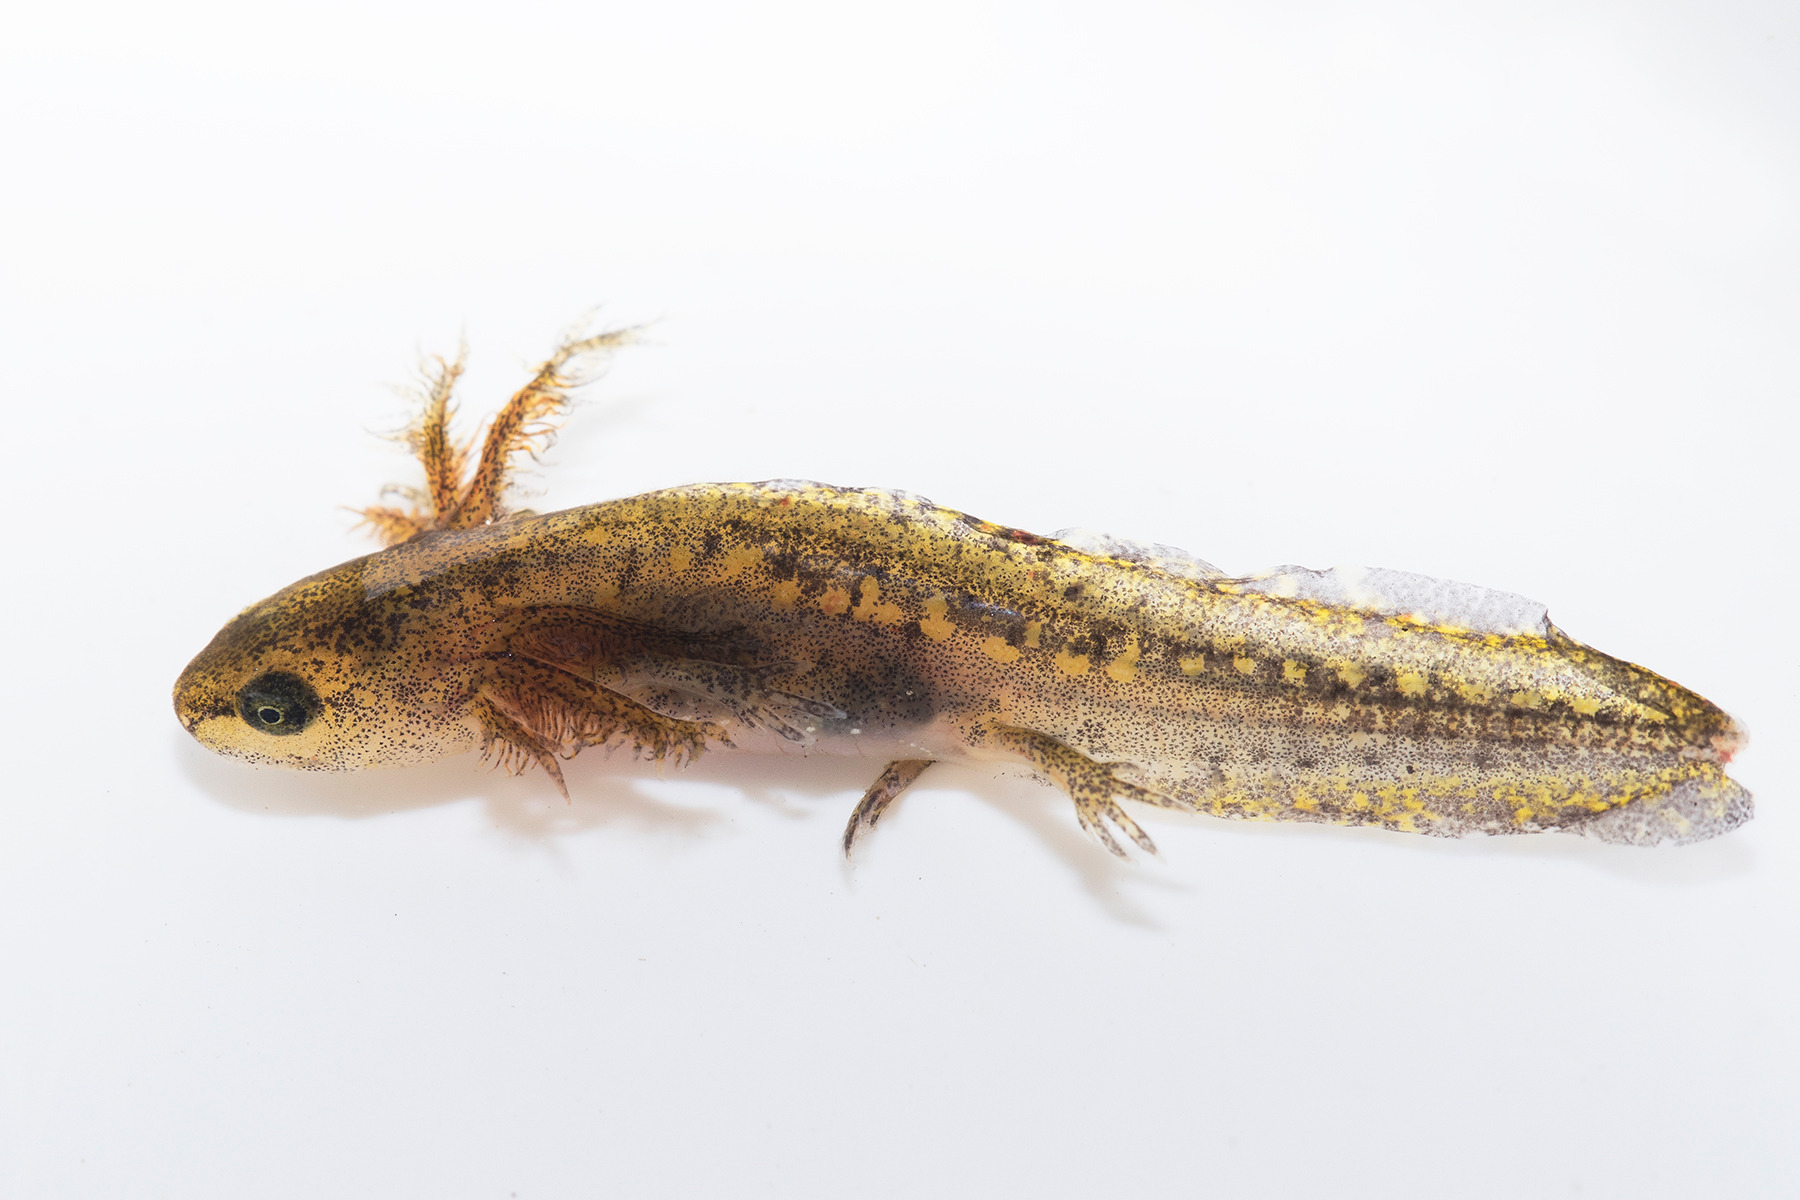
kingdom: Animalia
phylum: Chordata
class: Amphibia
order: Caudata
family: Salamandridae
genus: Ichthyosaura
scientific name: Ichthyosaura alpestris
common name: Bjergsalamander
